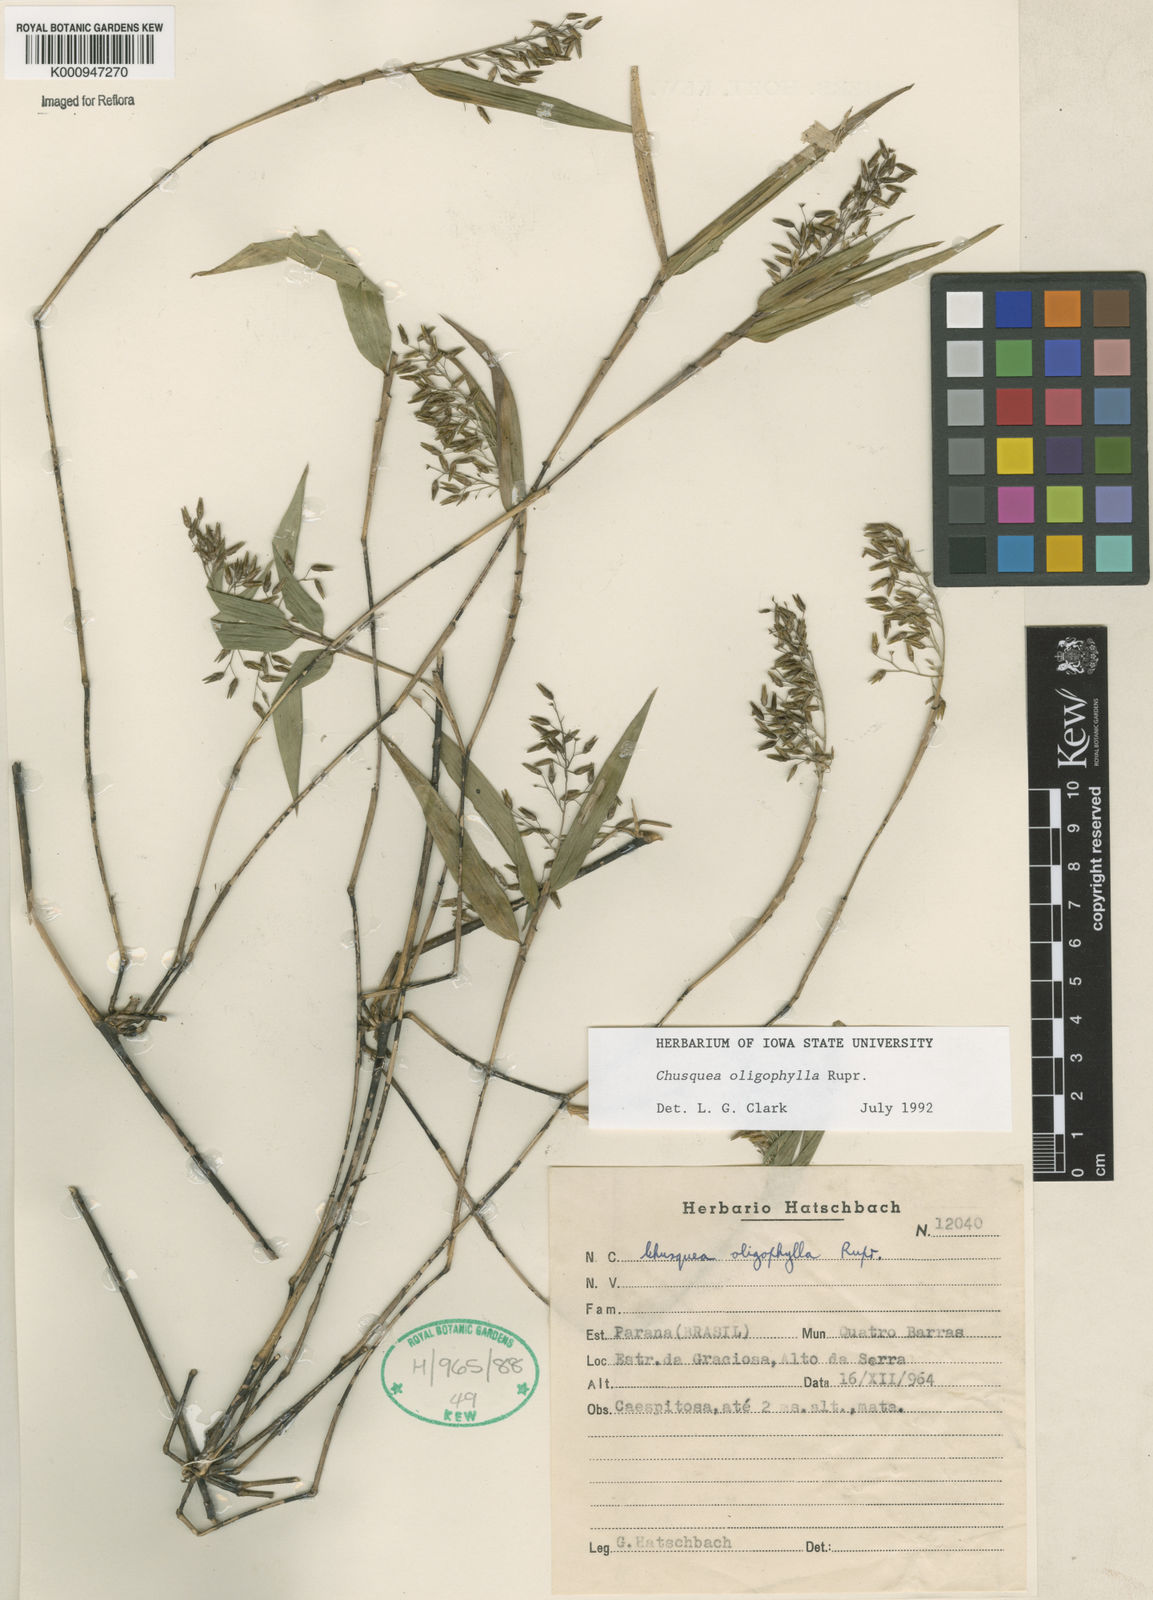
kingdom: Plantae
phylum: Tracheophyta
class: Liliopsida
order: Poales
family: Poaceae
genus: Chusquea
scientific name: Chusquea oligophylla
